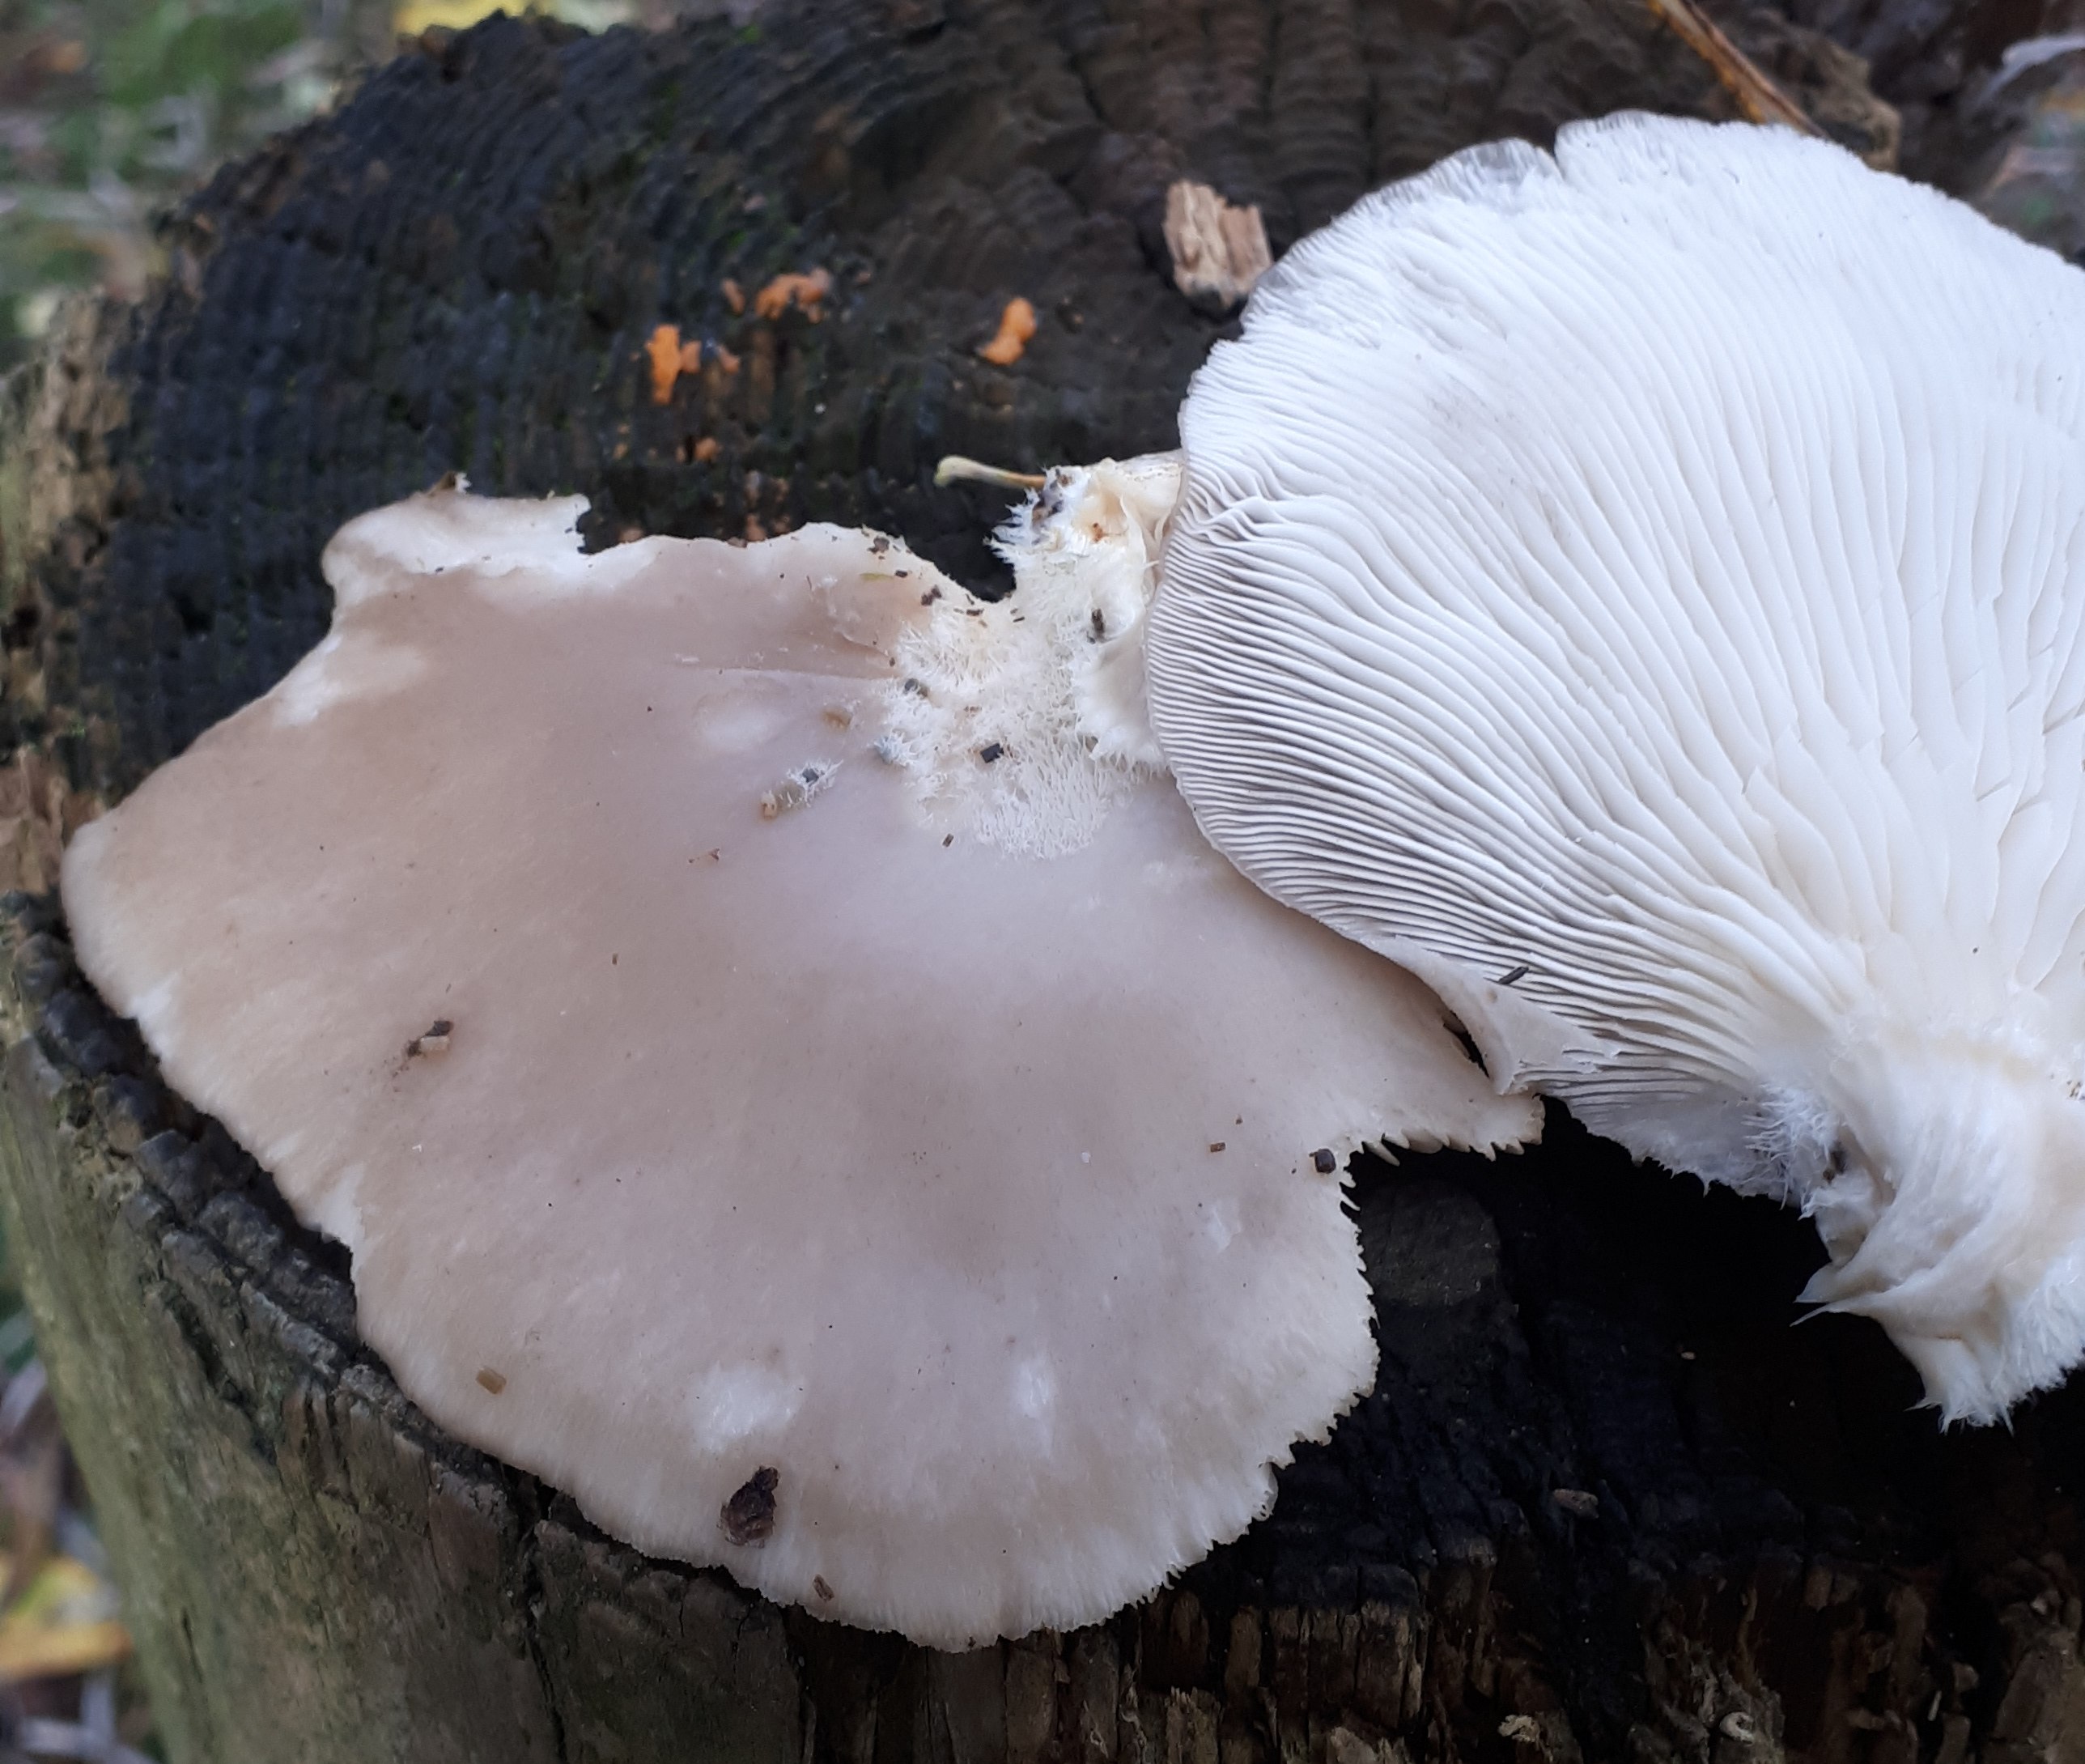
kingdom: Fungi
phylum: Basidiomycota
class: Agaricomycetes
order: Agaricales
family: Pleurotaceae
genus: Pleurotus
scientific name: Pleurotus ostreatus
